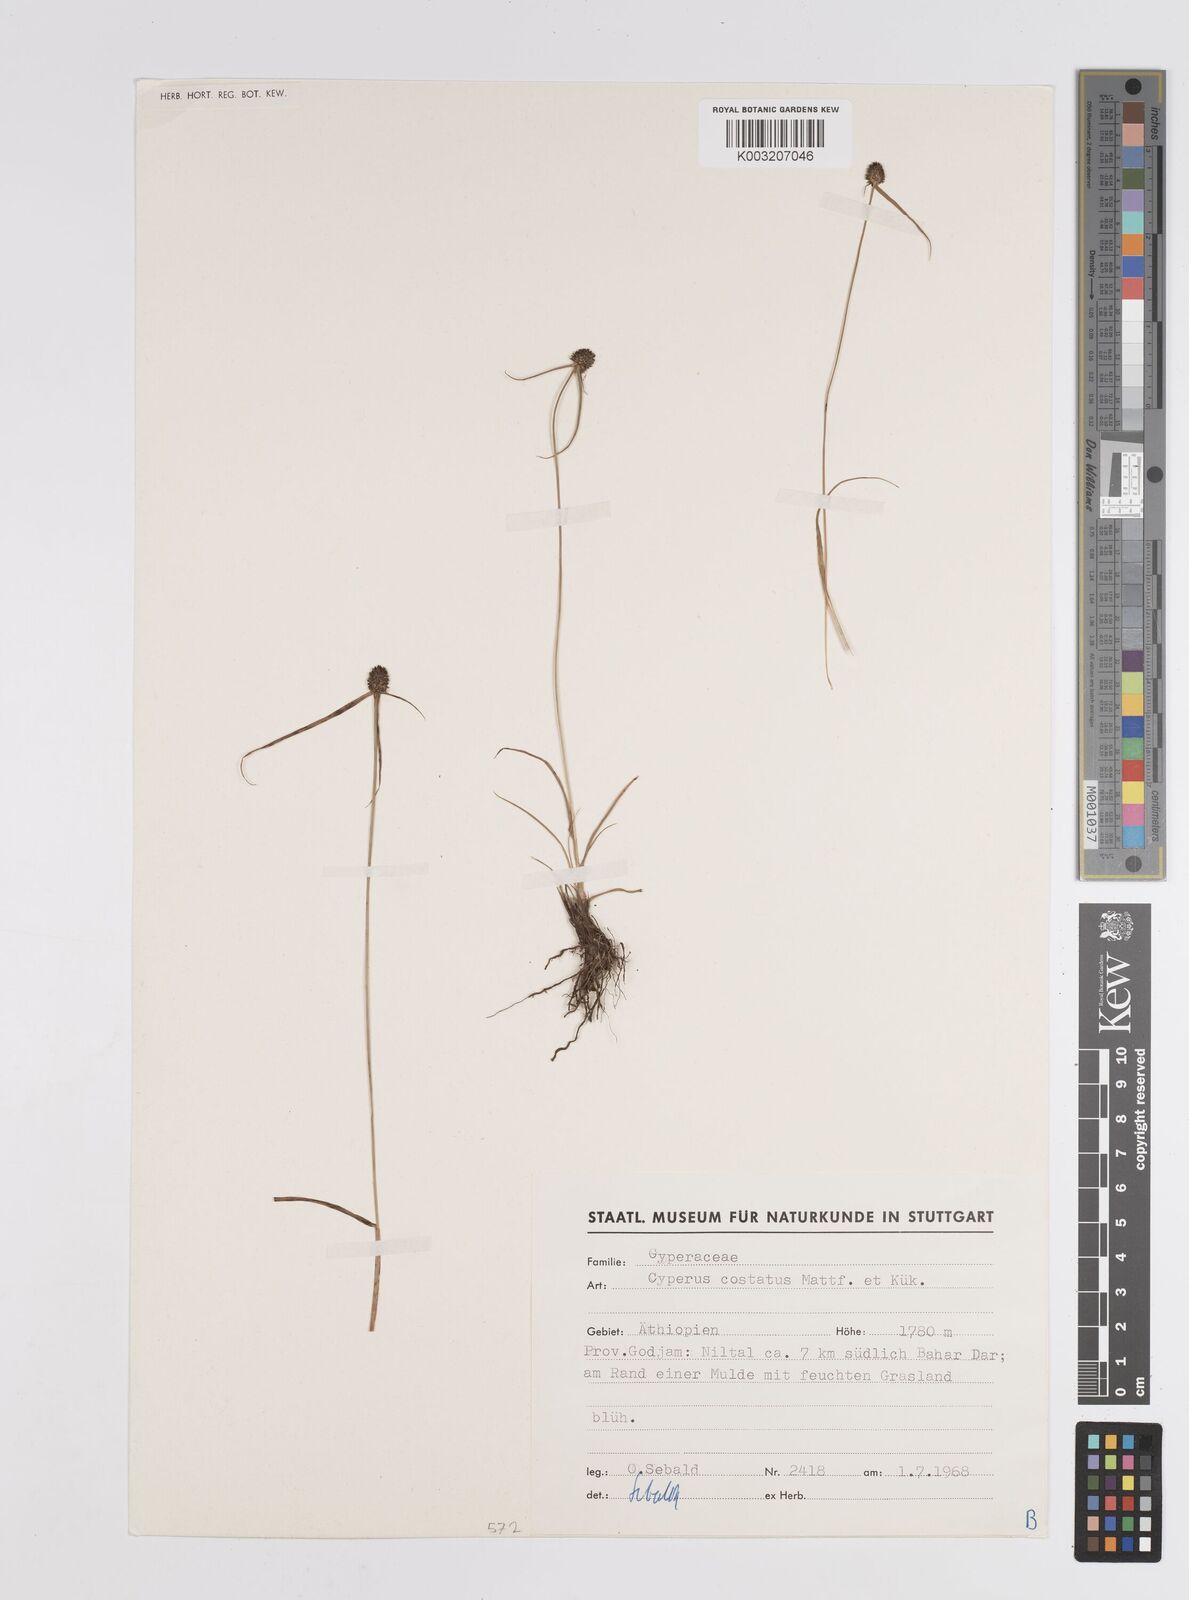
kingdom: Plantae
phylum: Tracheophyta
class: Liliopsida
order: Poales
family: Cyperaceae
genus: Cyperus
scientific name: Cyperus costatus
